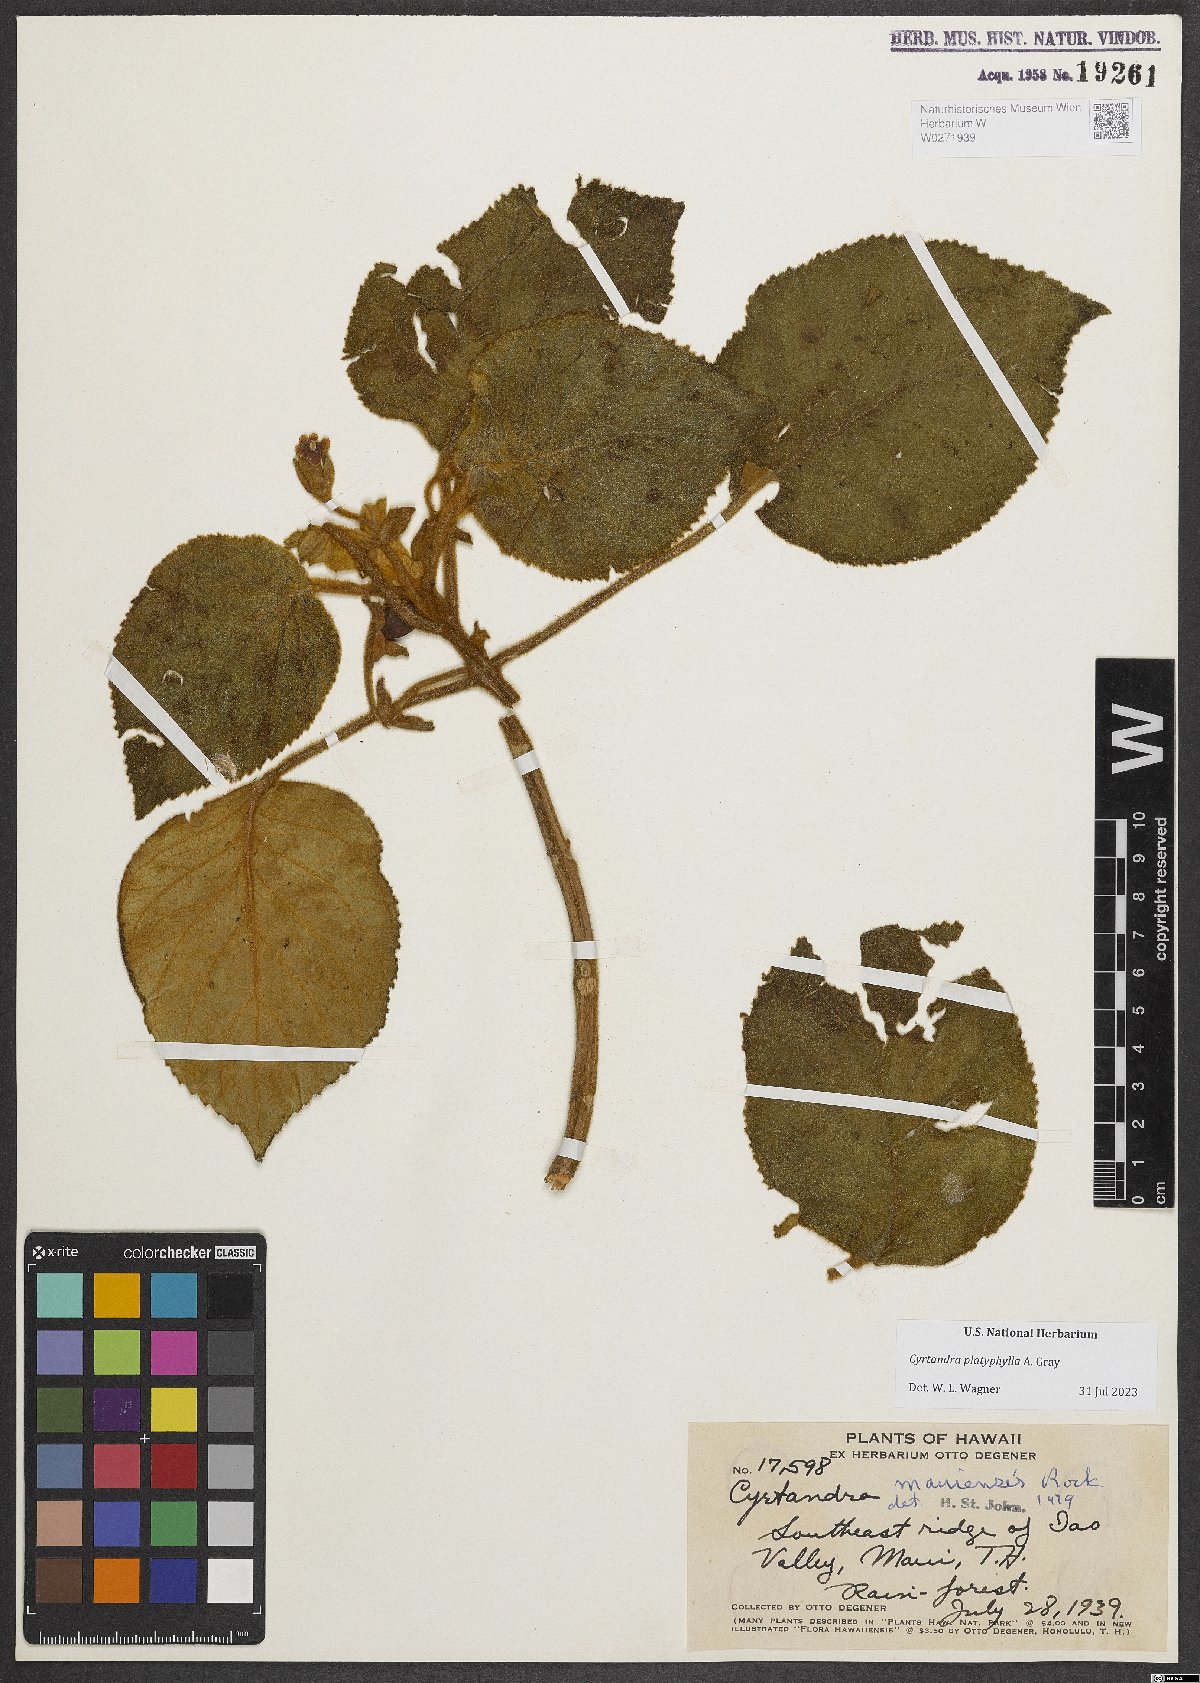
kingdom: Plantae
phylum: Tracheophyta
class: Magnoliopsida
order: Lamiales
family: Gesneriaceae
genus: Cyrtandra
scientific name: Cyrtandra platyphylla
